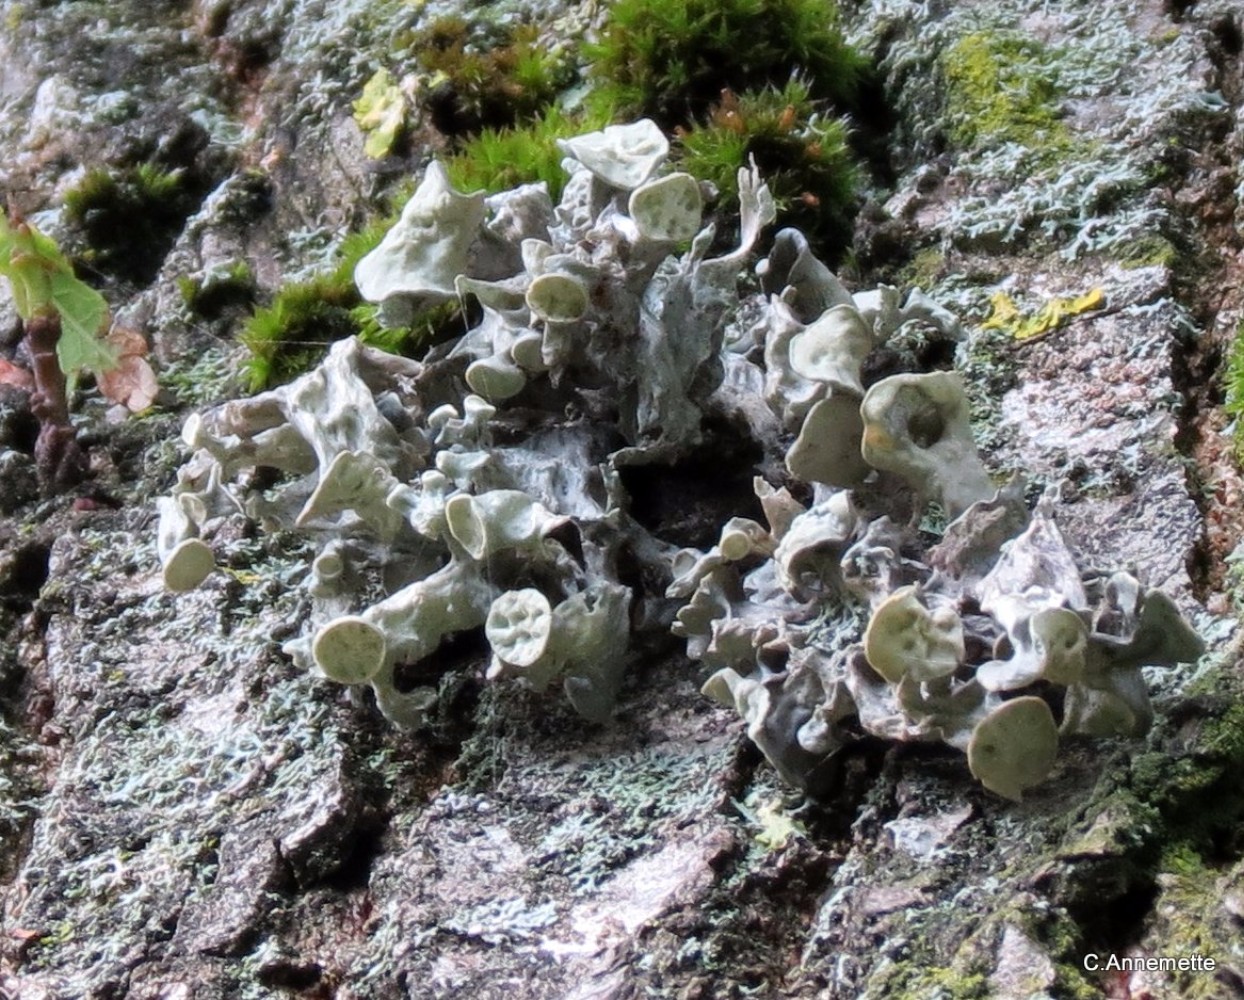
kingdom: Fungi
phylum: Ascomycota
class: Lecanoromycetes
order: Lecanorales
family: Ramalinaceae
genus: Ramalina
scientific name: Ramalina fastigiata
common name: tue-grenlav
